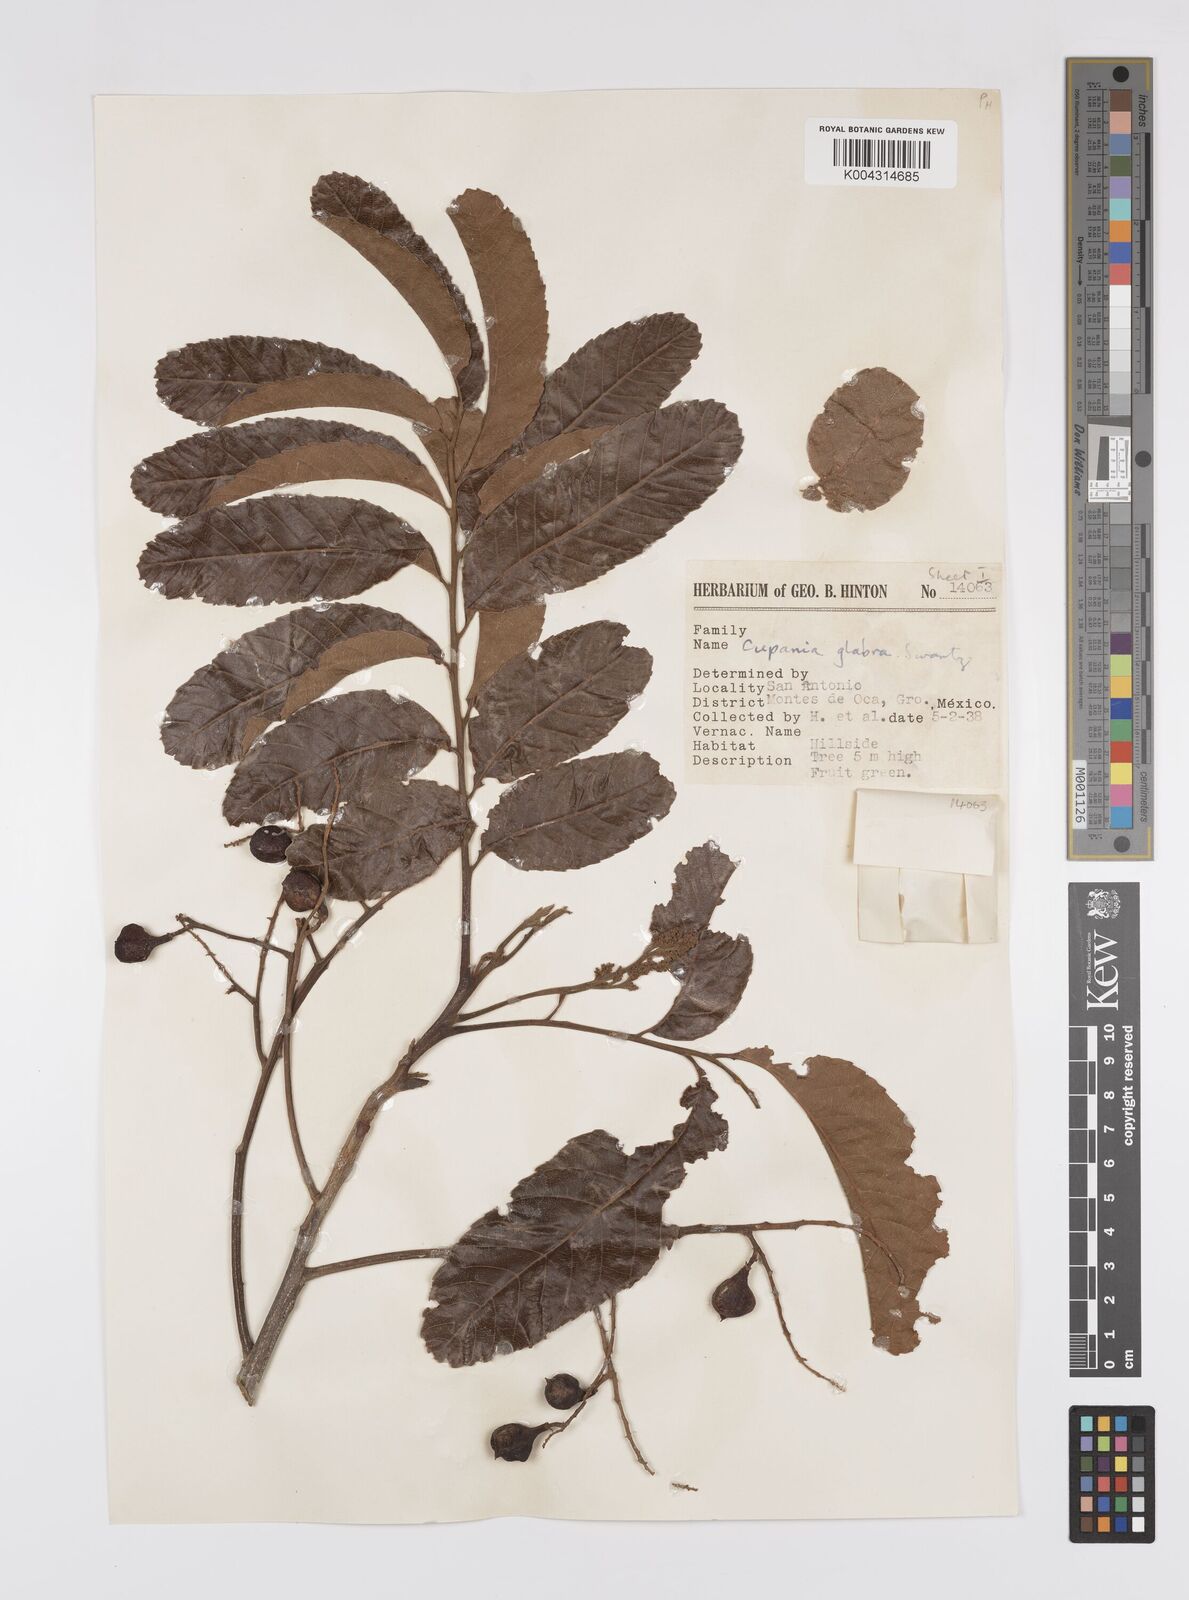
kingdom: Plantae
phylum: Tracheophyta
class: Magnoliopsida
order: Sapindales
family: Sapindaceae
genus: Cupania
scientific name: Cupania
